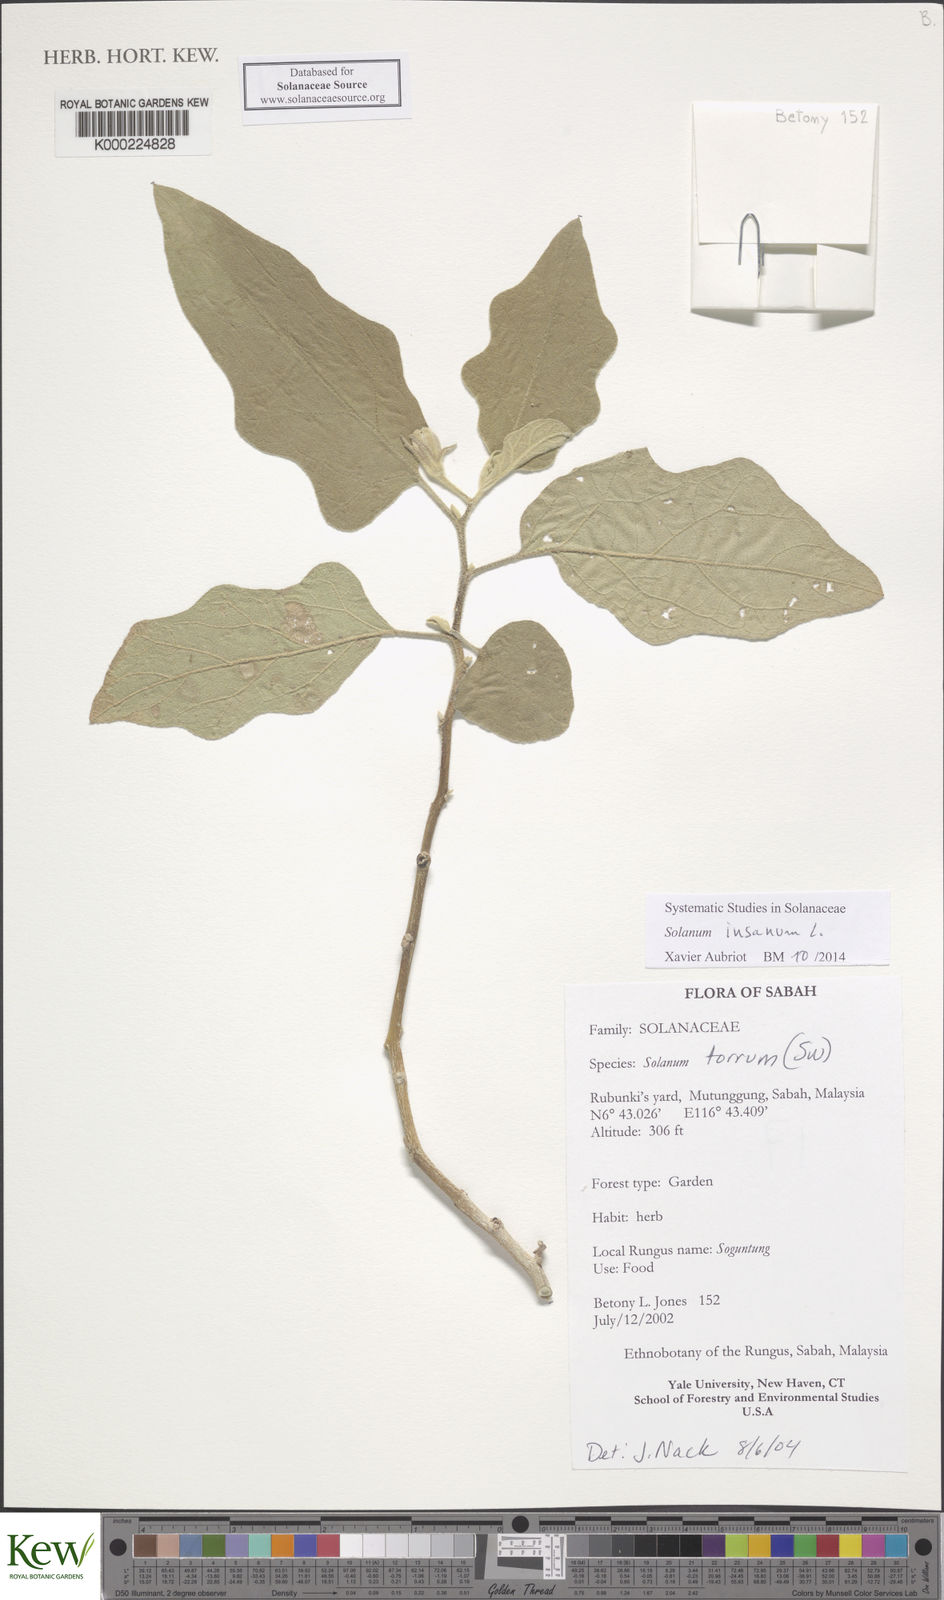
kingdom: Plantae
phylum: Tracheophyta
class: Magnoliopsida
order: Solanales
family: Solanaceae
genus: Solanum
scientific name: Solanum torvum
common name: Turkey berry
